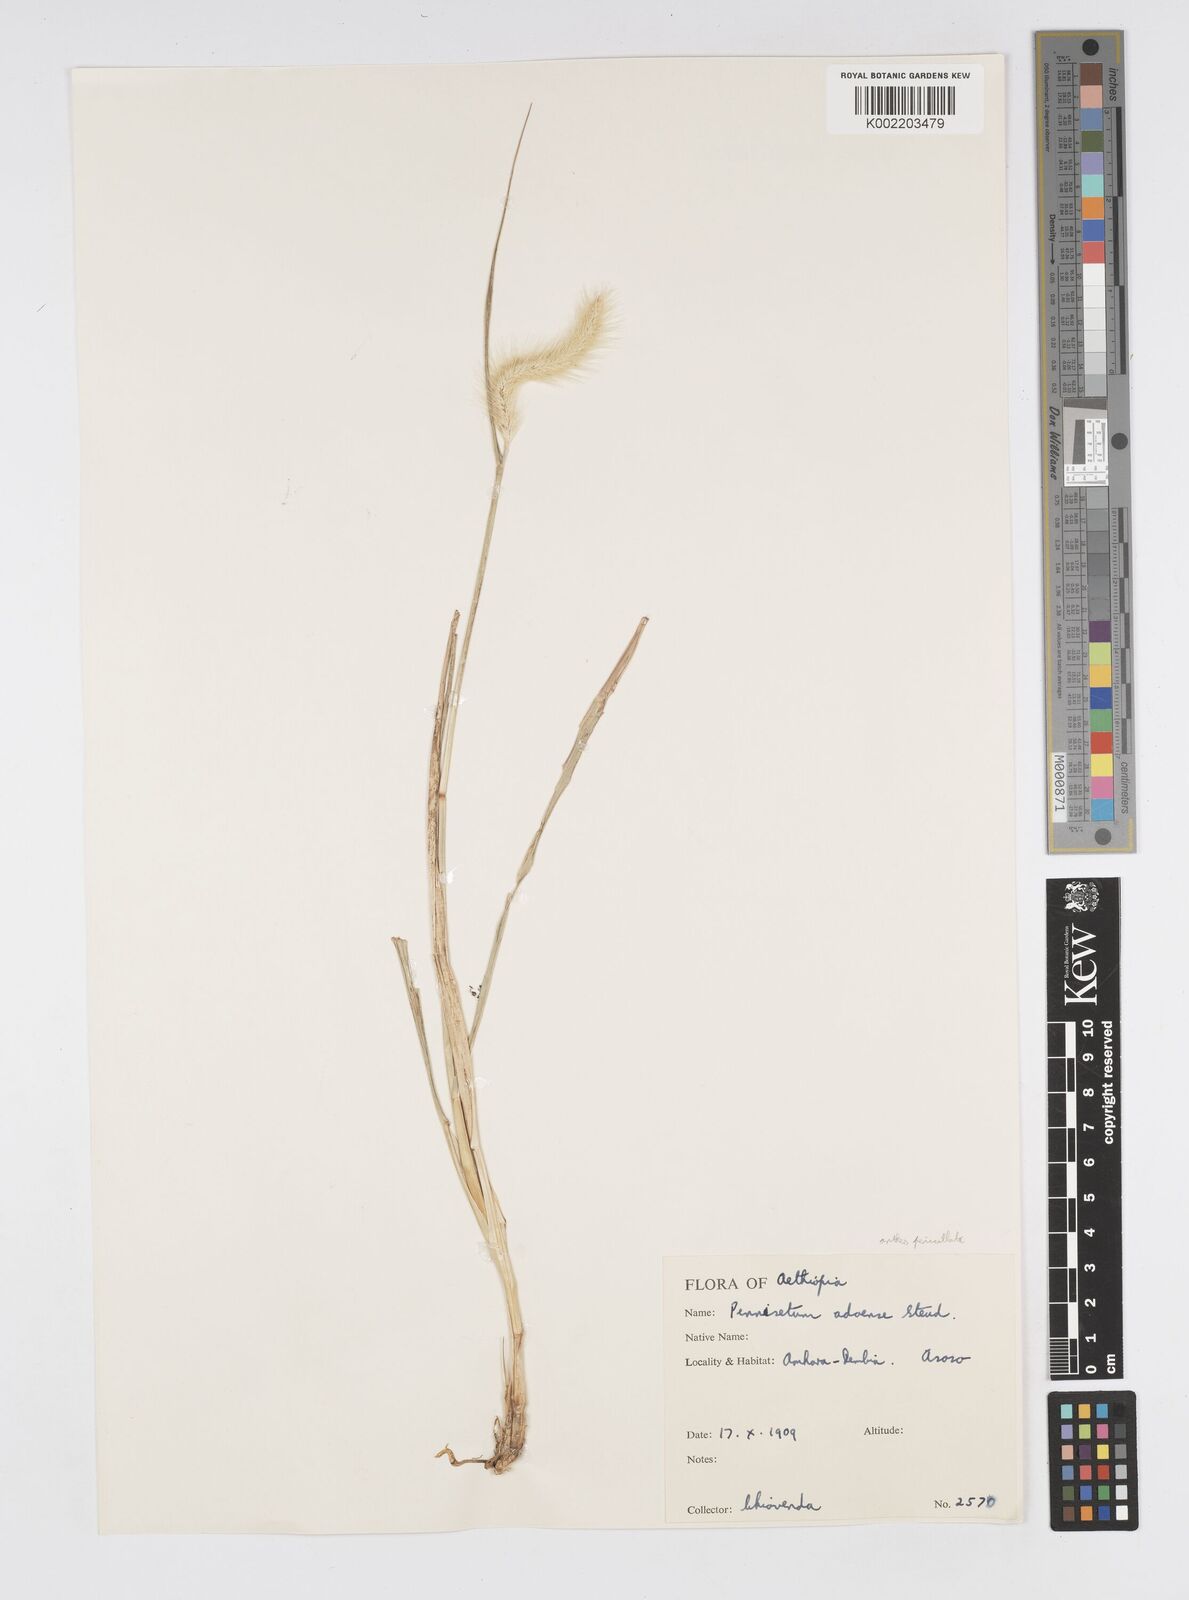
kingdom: Plantae
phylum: Tracheophyta
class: Liliopsida
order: Poales
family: Poaceae
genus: Cenchrus
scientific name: Cenchrus geniculatus
